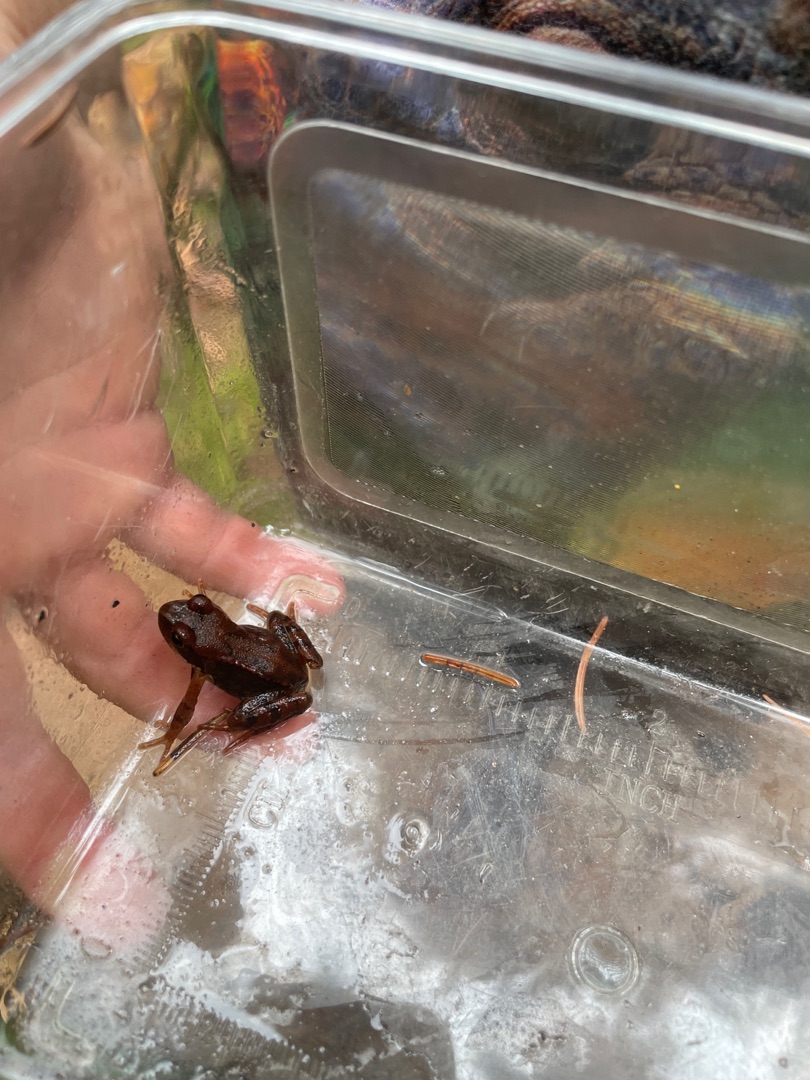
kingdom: Animalia
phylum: Chordata
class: Amphibia
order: Anura
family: Ranidae
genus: Rana
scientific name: Rana temporaria
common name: Butsnudet frø
